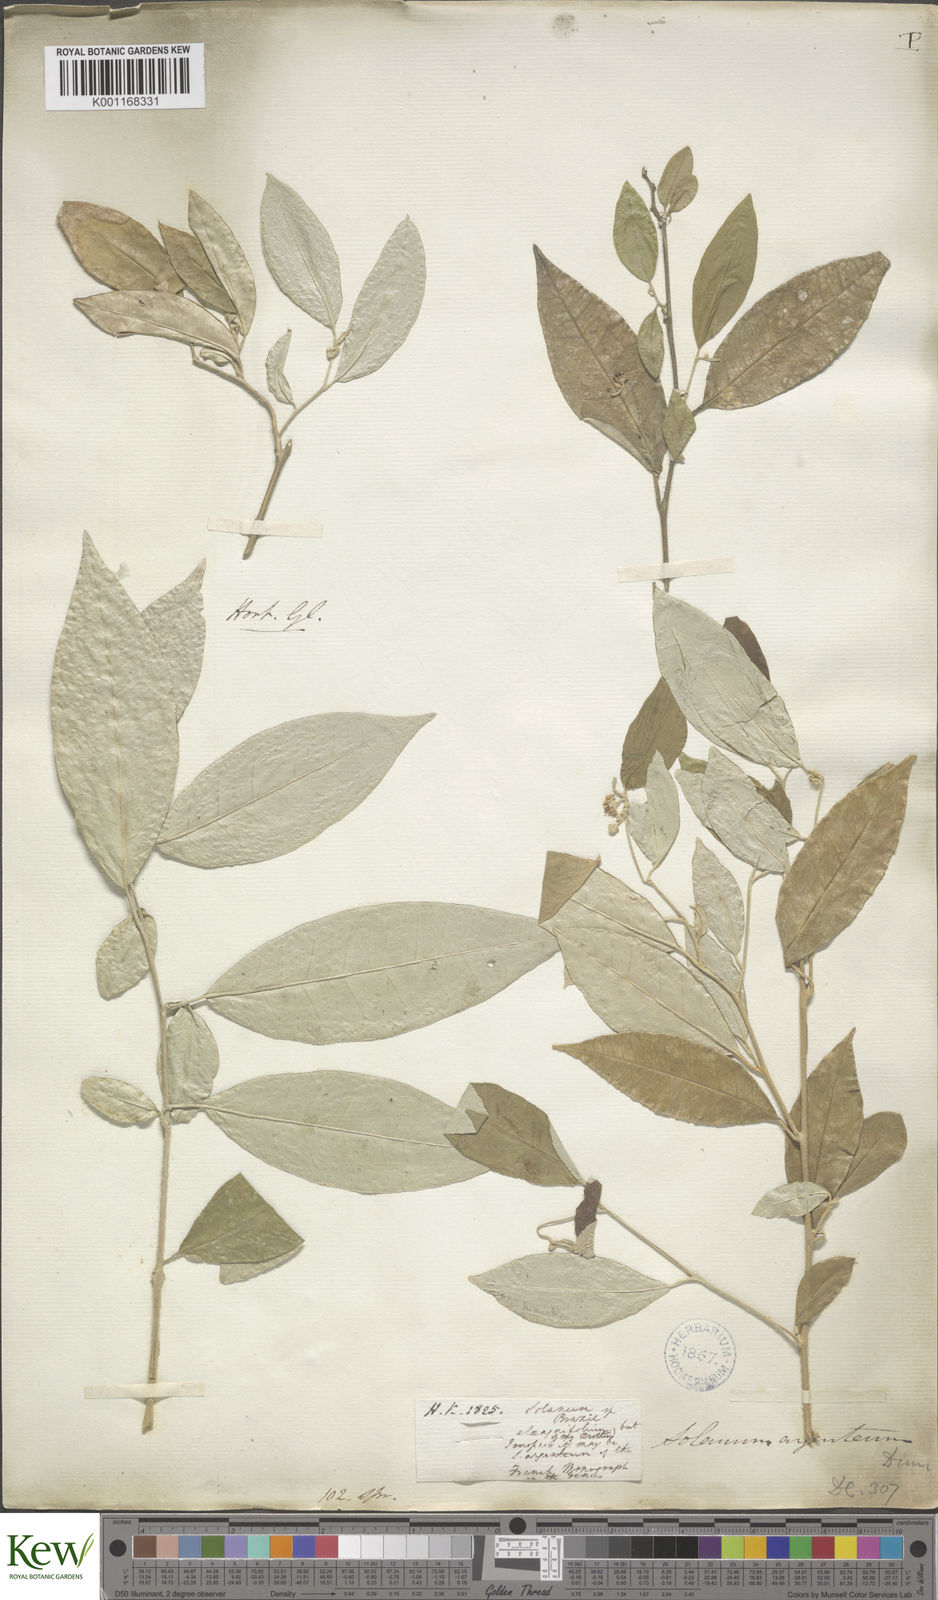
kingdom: Plantae
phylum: Tracheophyta
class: Magnoliopsida
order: Solanales
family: Solanaceae
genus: Solanum
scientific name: Solanum swartzianum
